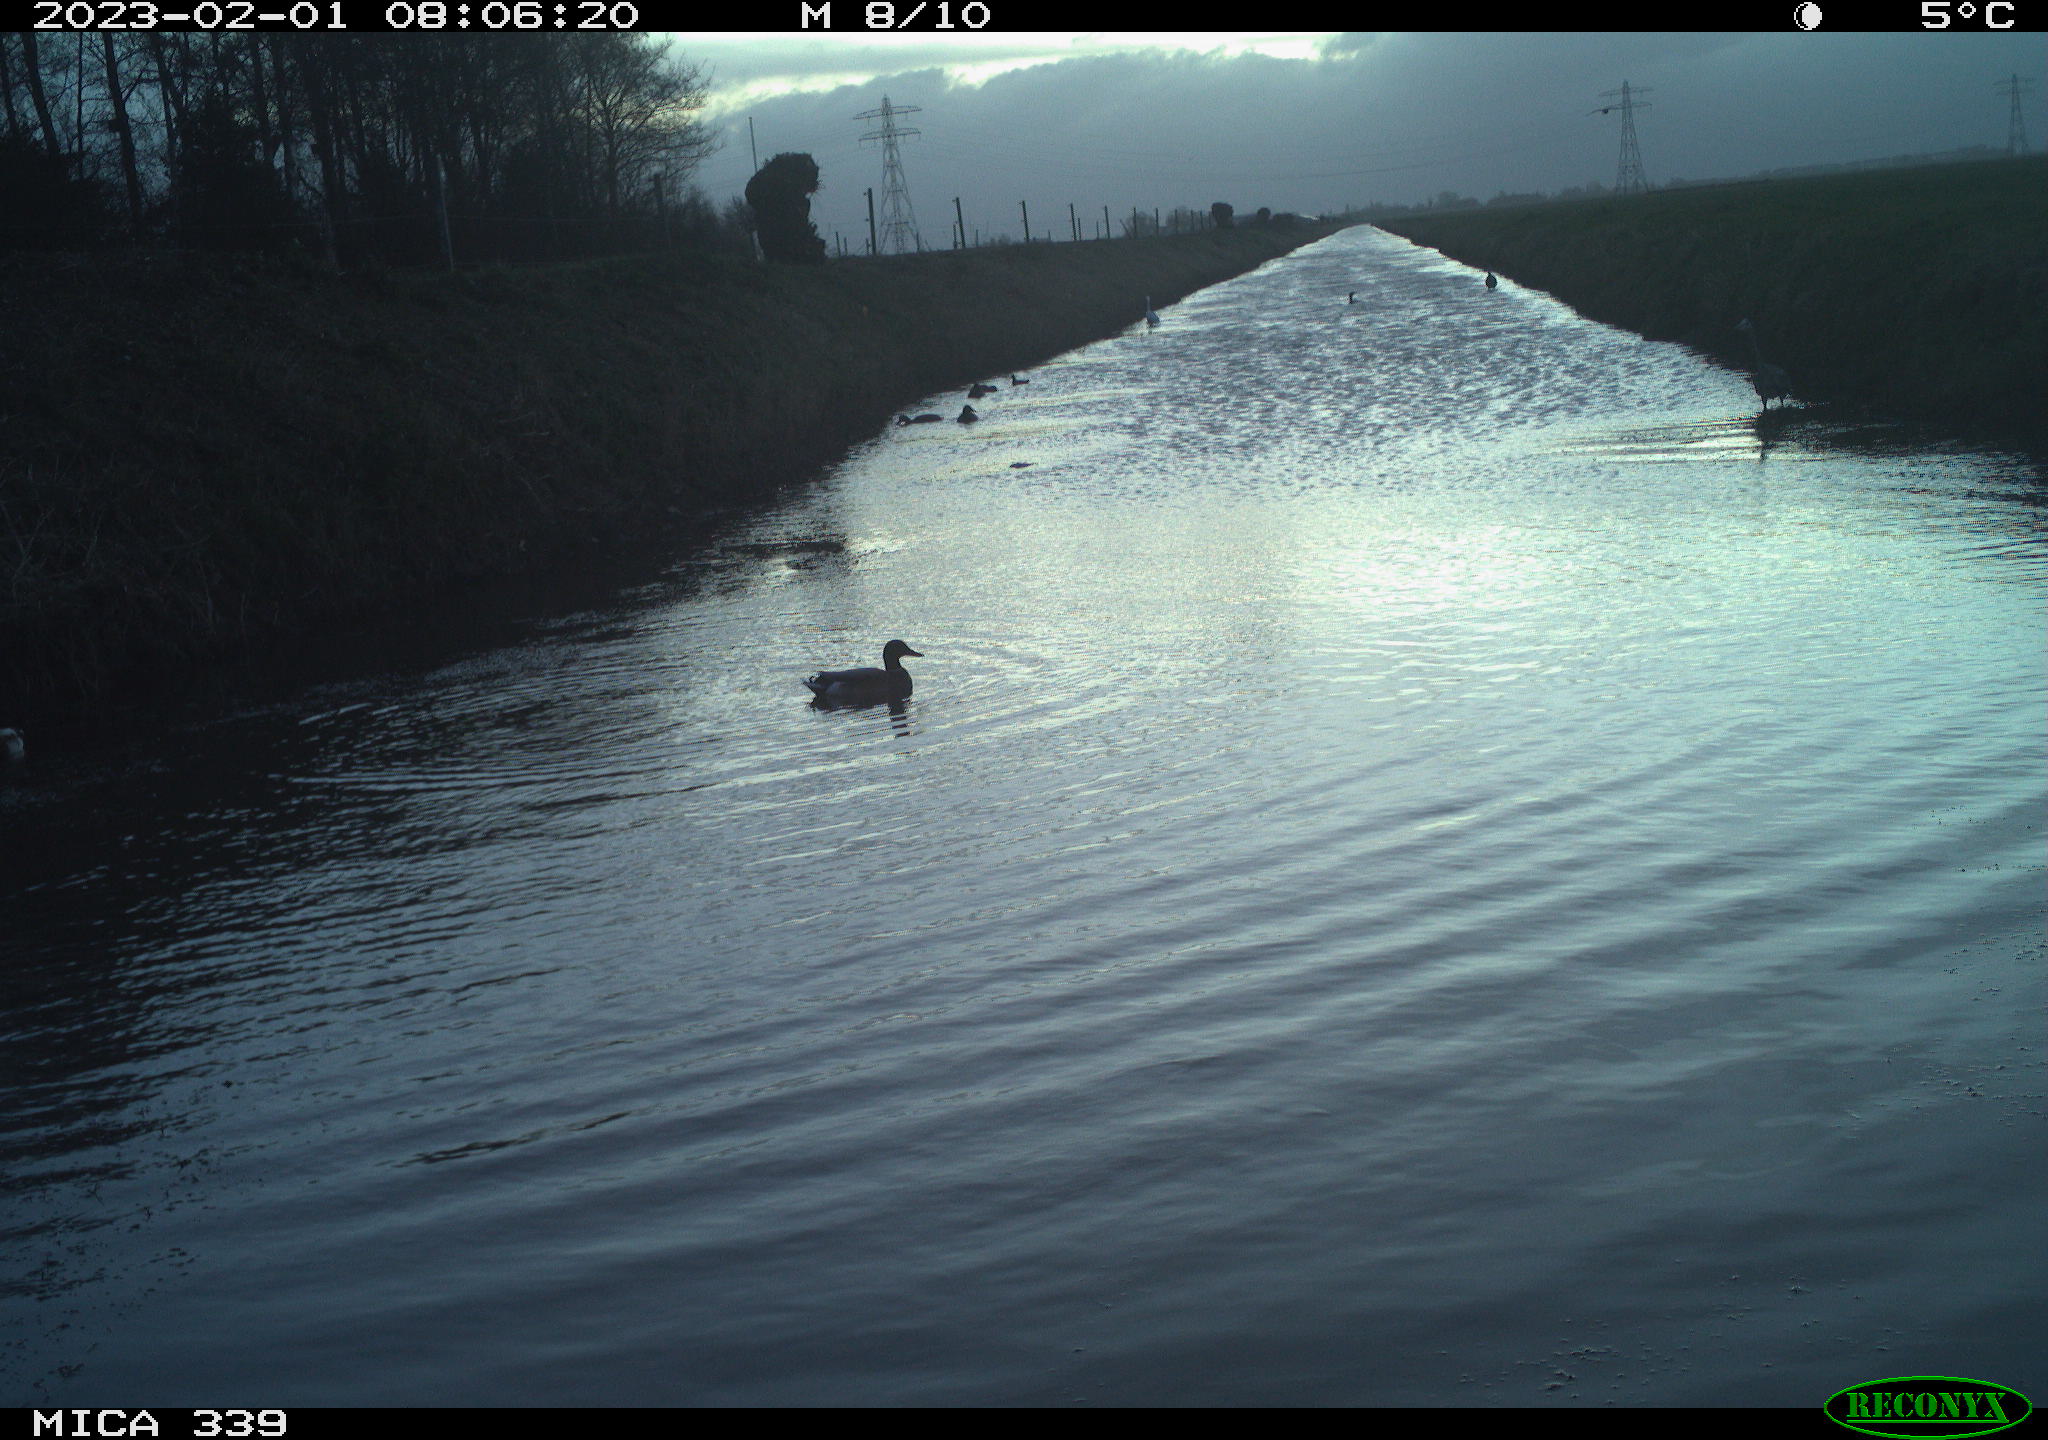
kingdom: Animalia
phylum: Chordata
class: Aves
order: Anseriformes
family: Anatidae
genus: Anas
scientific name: Anas
